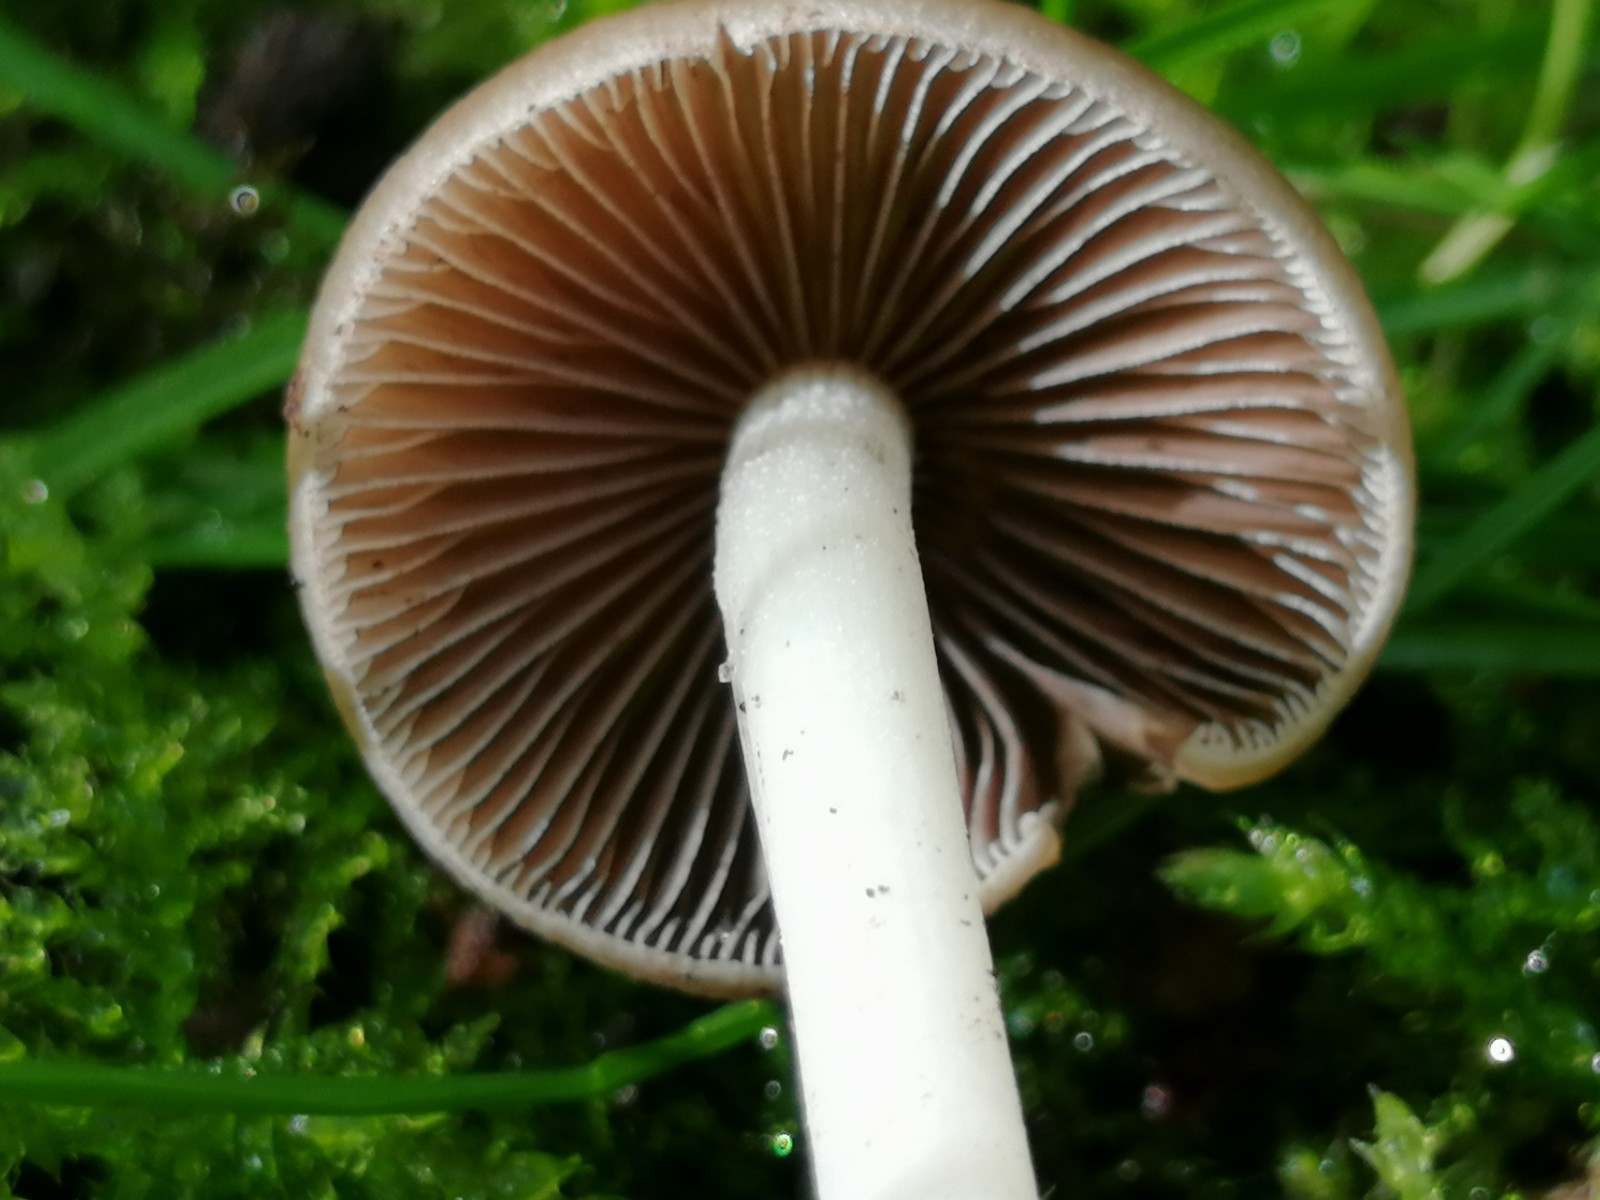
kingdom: Fungi
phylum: Basidiomycota
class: Agaricomycetes
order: Agaricales
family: Psathyrellaceae
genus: Psathyrella
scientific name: Psathyrella
